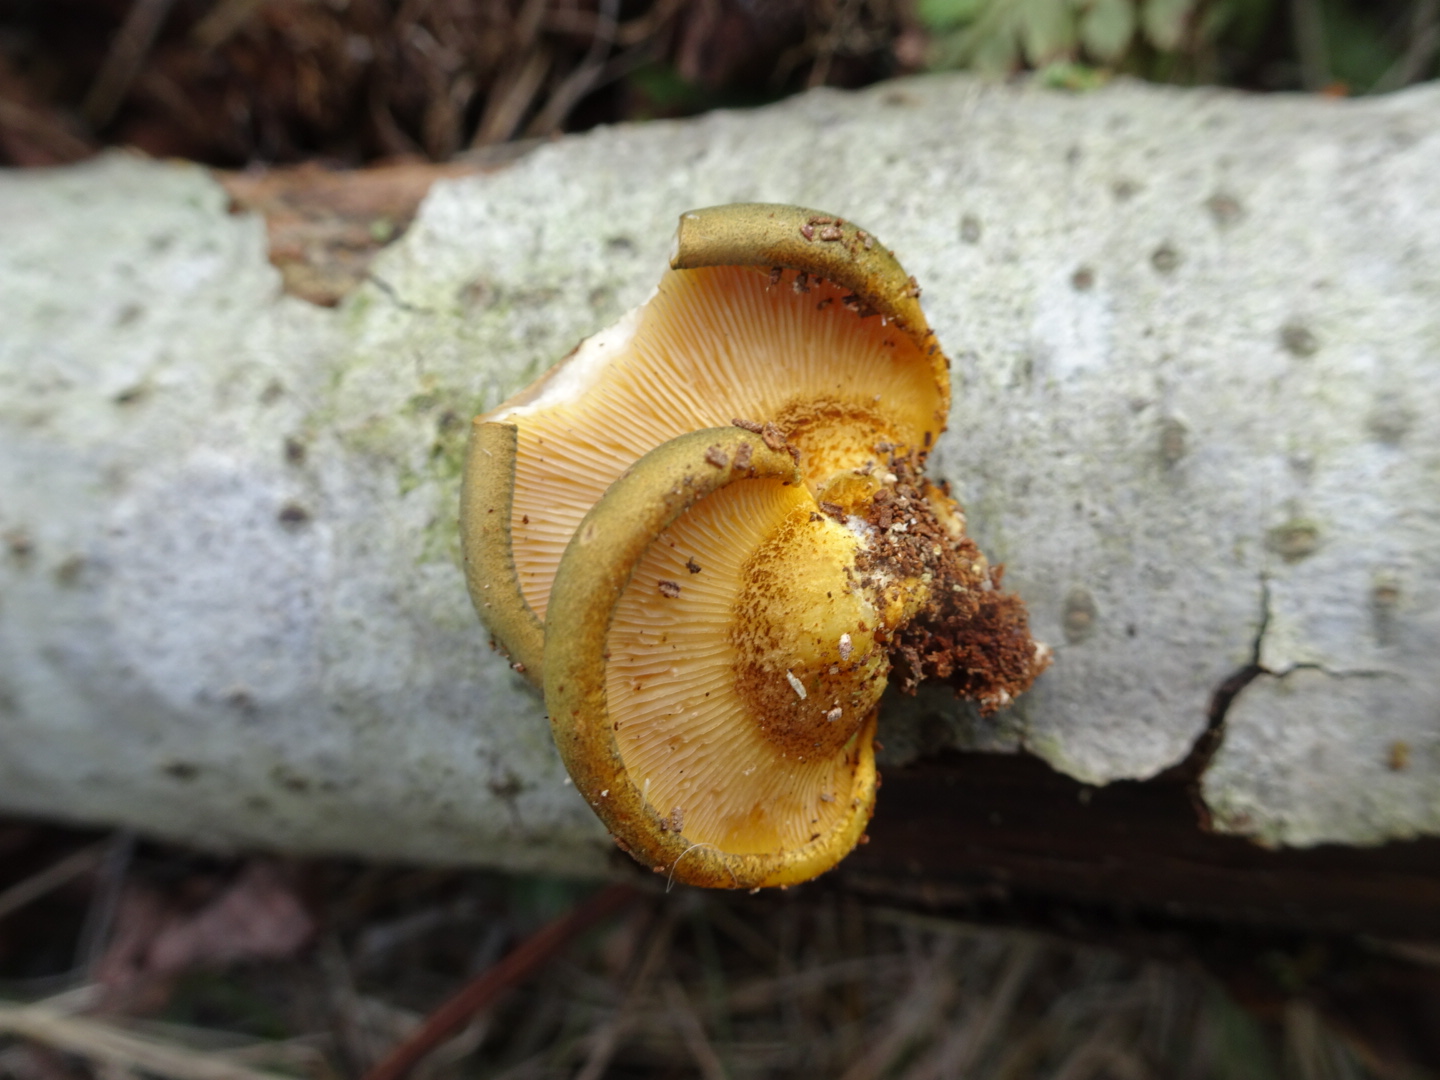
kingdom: Fungi
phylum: Basidiomycota
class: Agaricomycetes
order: Agaricales
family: Sarcomyxaceae
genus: Sarcomyxa
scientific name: Sarcomyxa serotina
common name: gummihat
